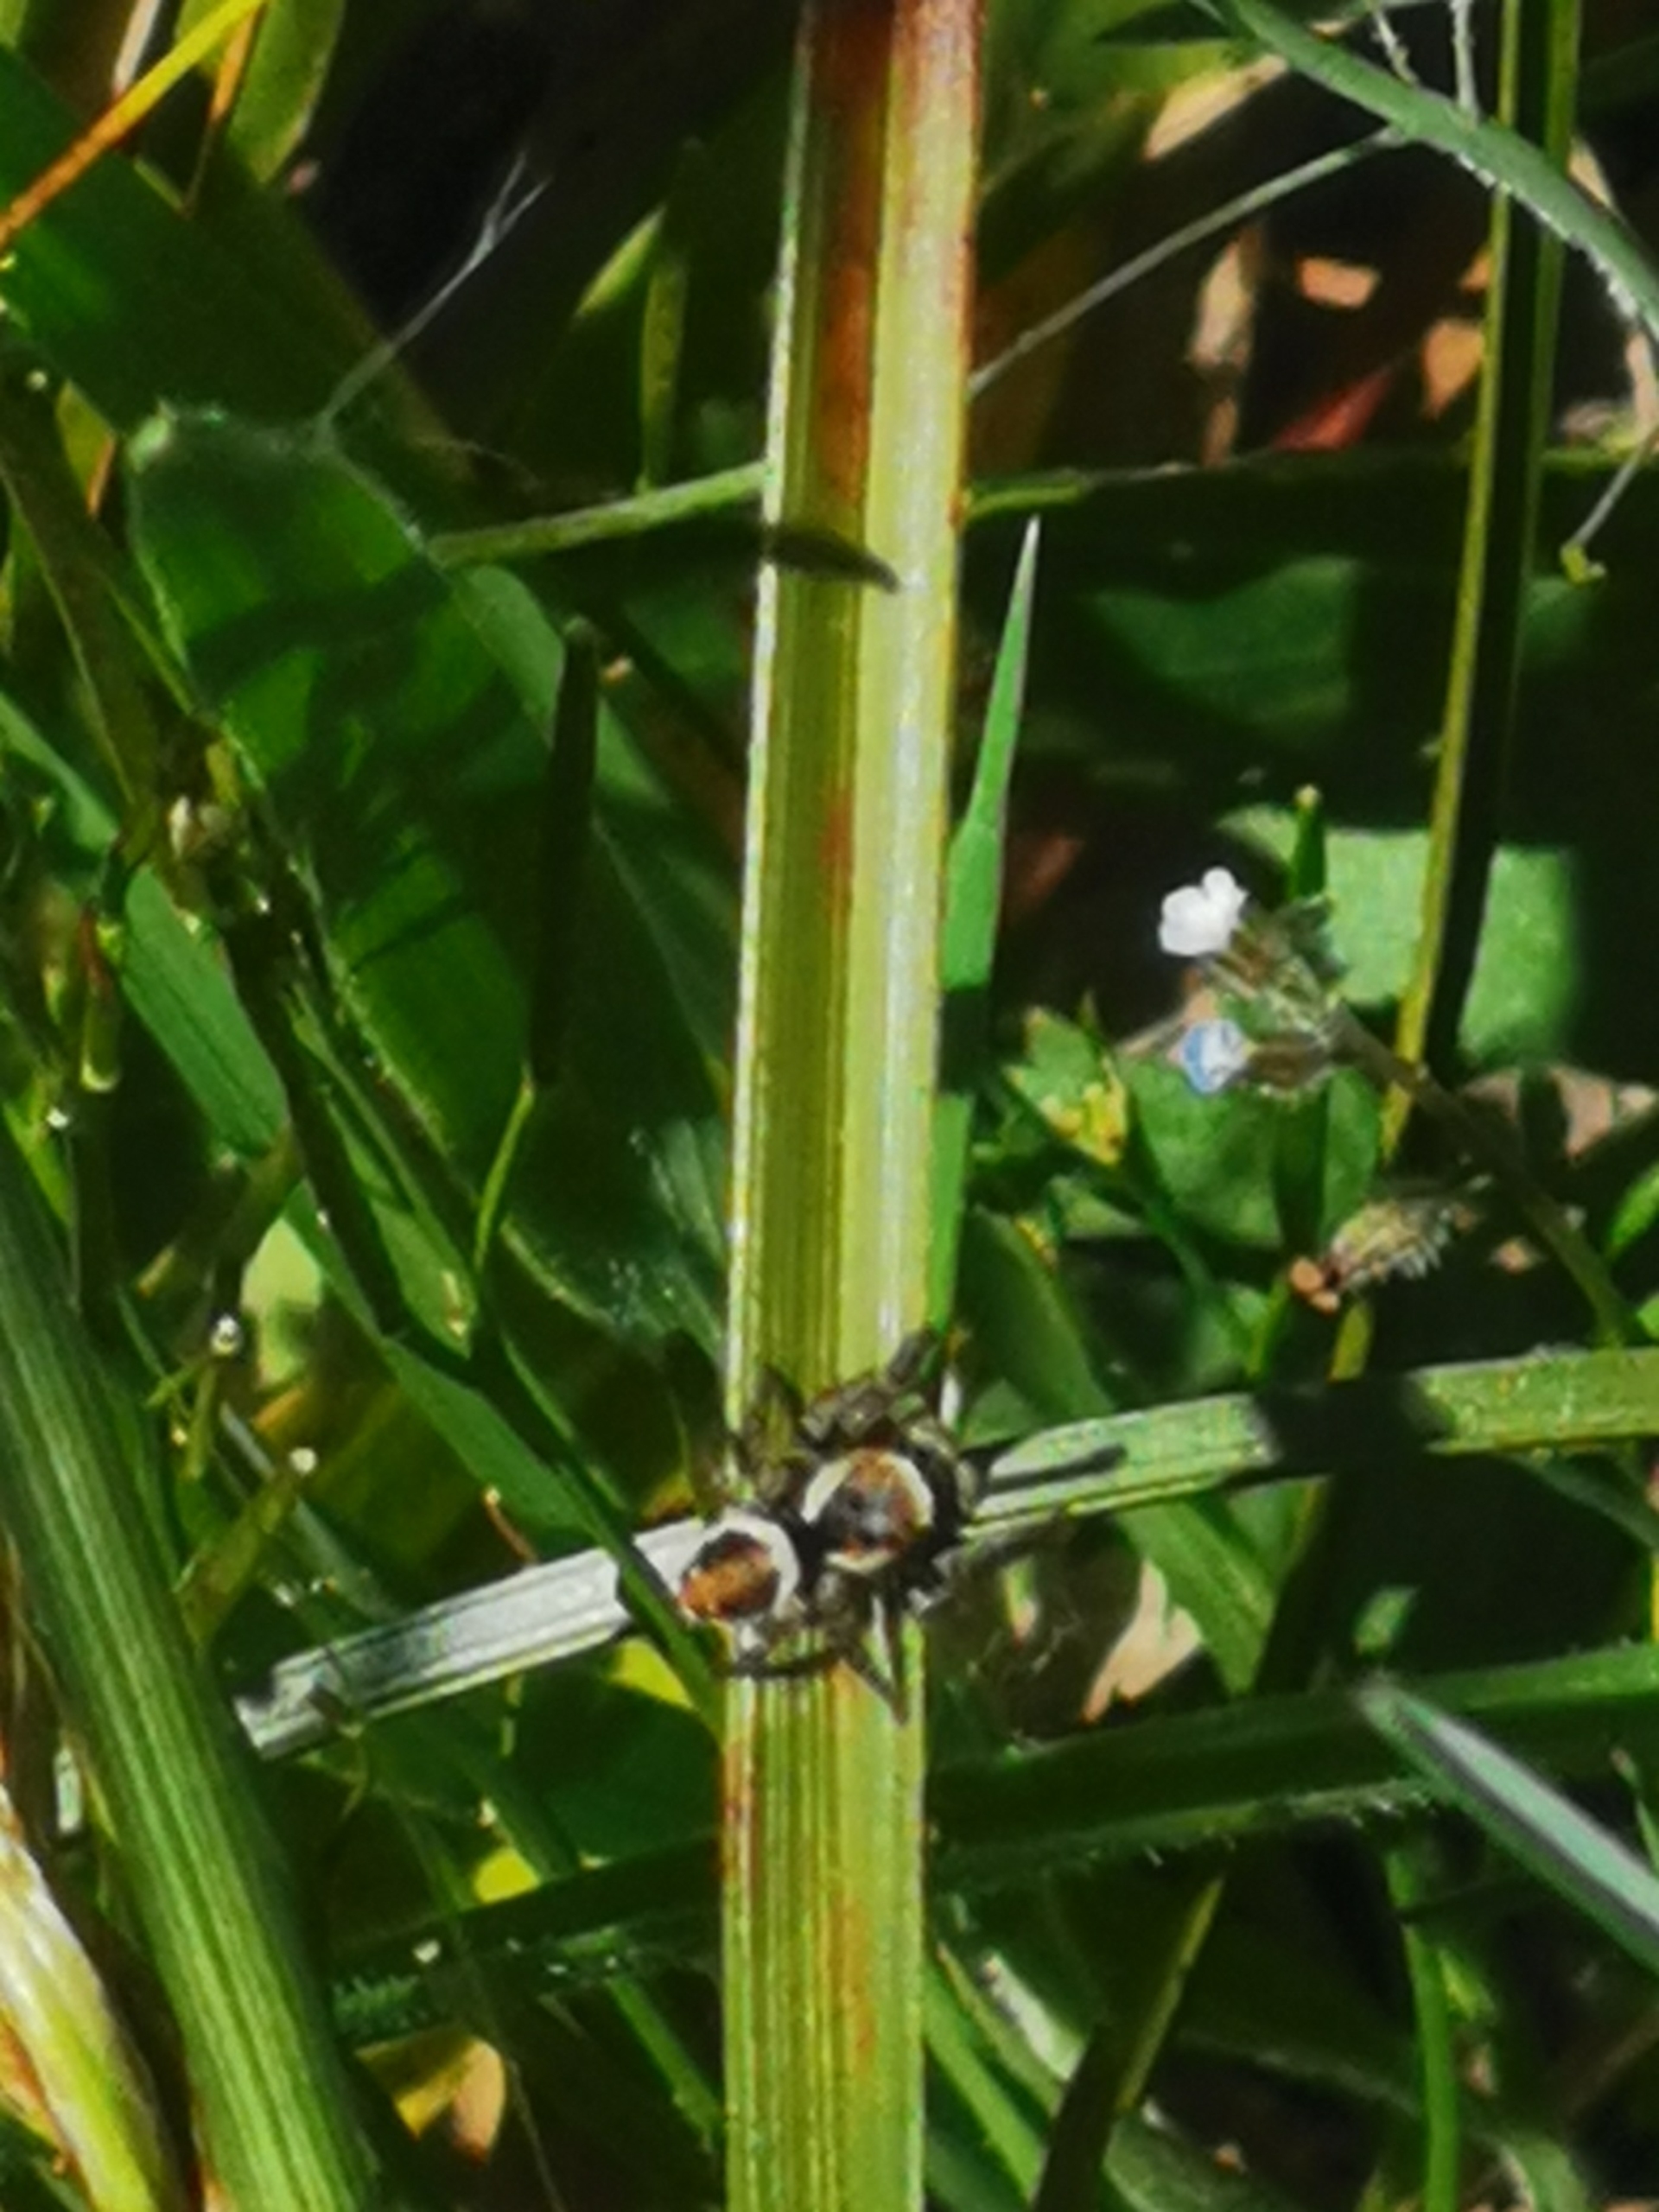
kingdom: Animalia
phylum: Arthropoda
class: Arachnida
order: Araneae
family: Salticidae
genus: Evarcha
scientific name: Evarcha falcata
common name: Broget springedderkop
